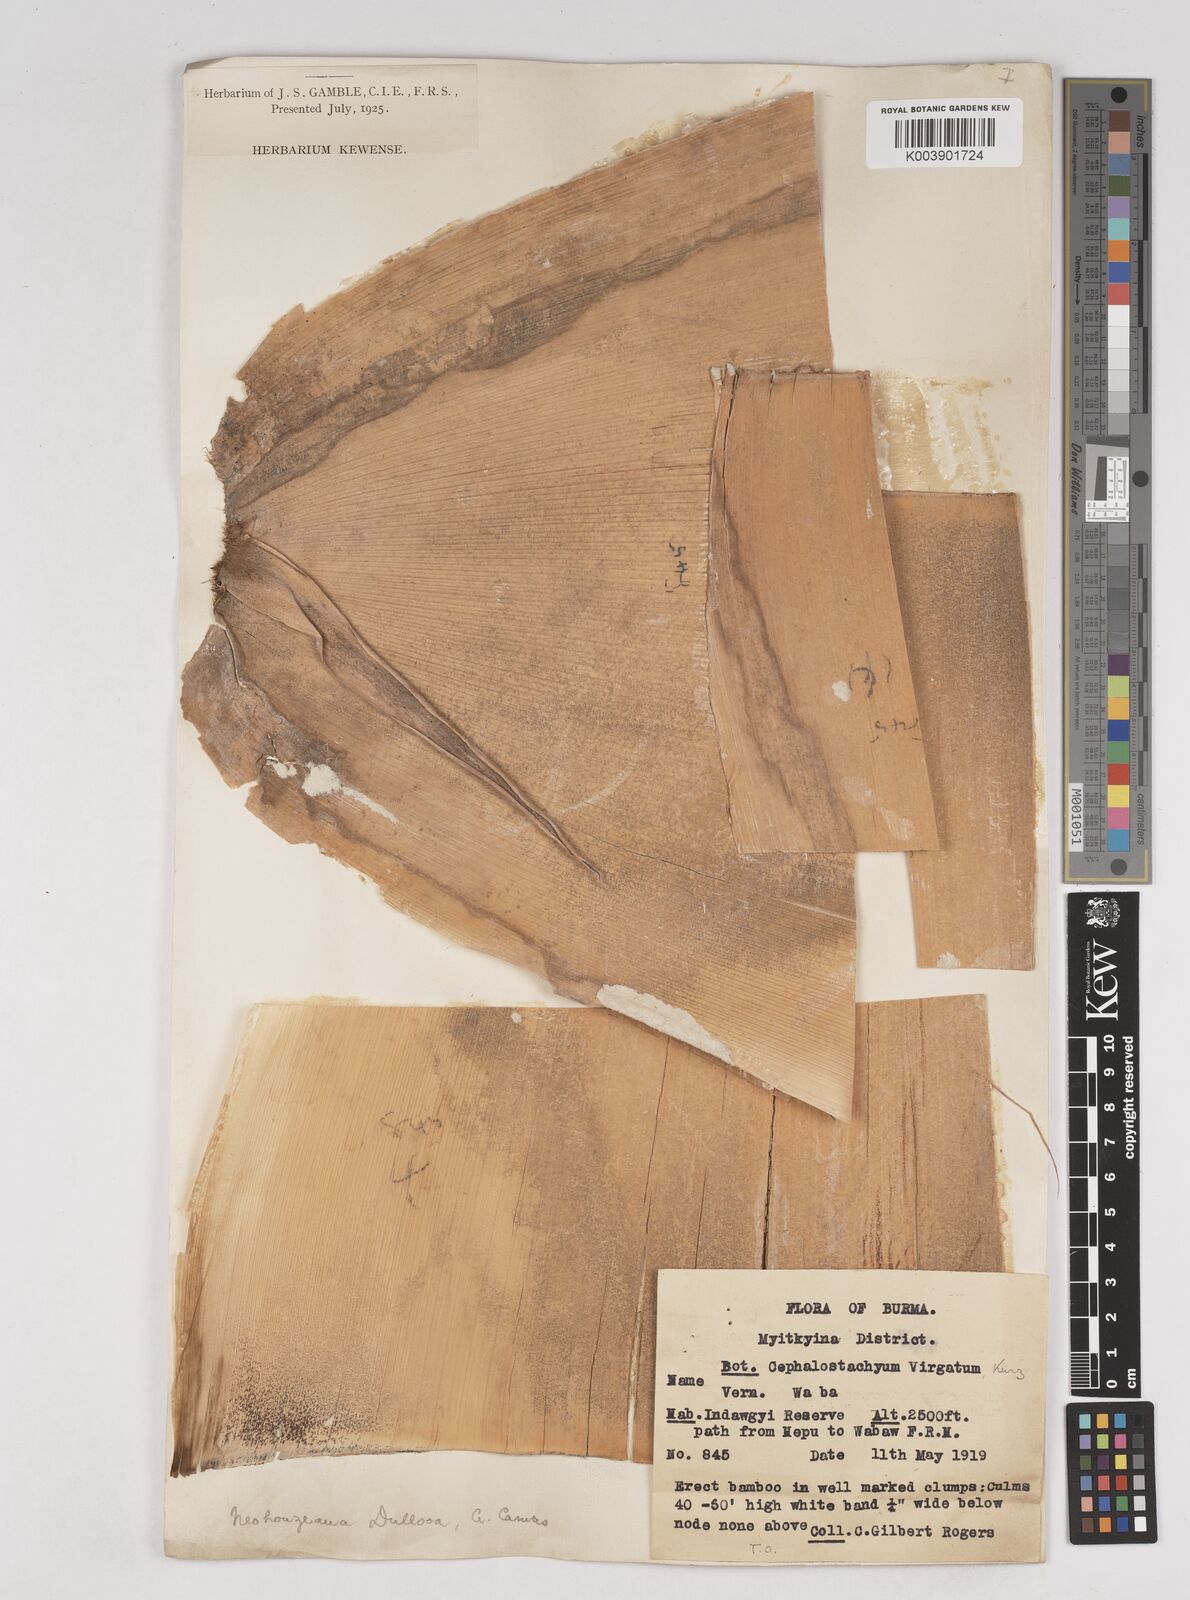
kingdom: Plantae
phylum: Tracheophyta
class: Liliopsida
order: Poales
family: Poaceae
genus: Schizostachyum
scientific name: Schizostachyum dullooa
